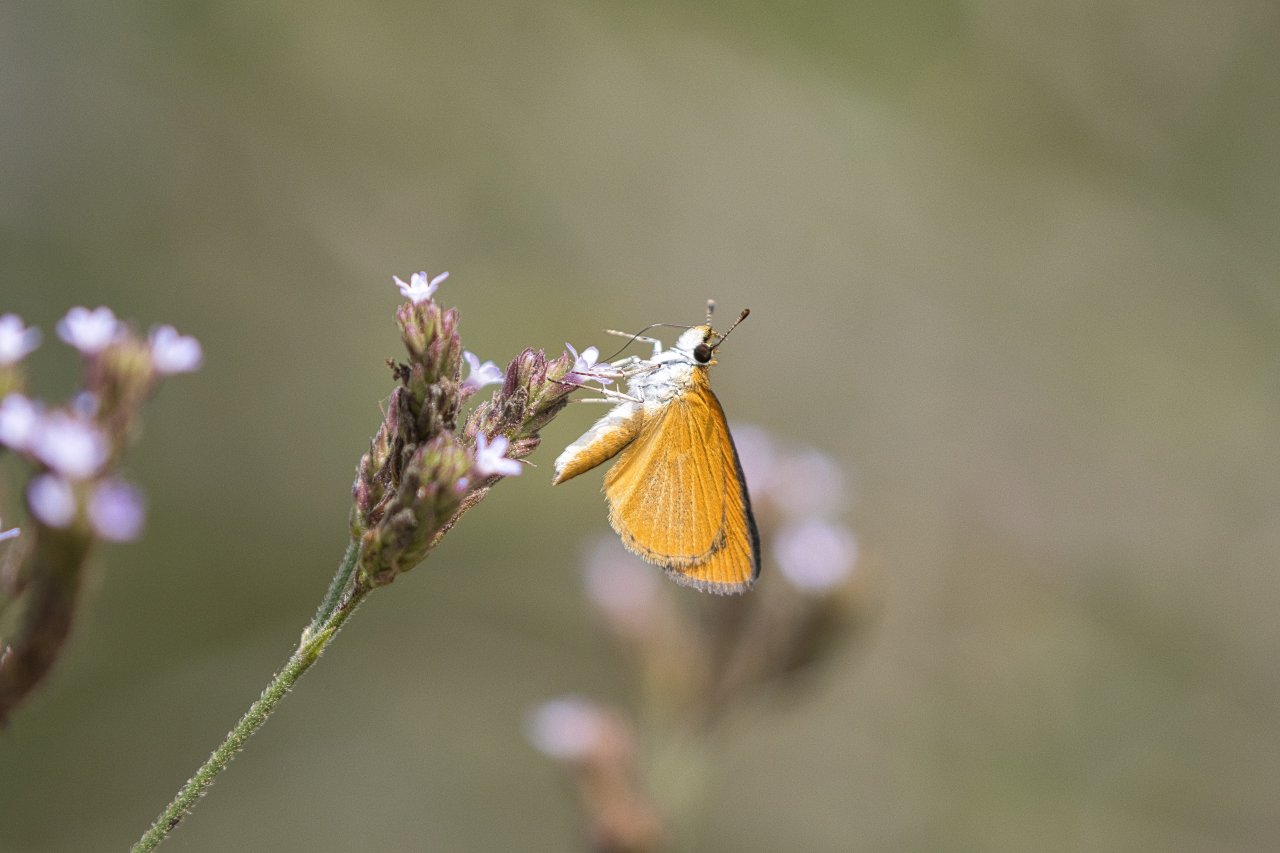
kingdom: Animalia
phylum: Arthropoda
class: Insecta
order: Lepidoptera
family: Hesperiidae
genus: Ancyloxypha
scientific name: Ancyloxypha numitor
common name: Least Skipper
